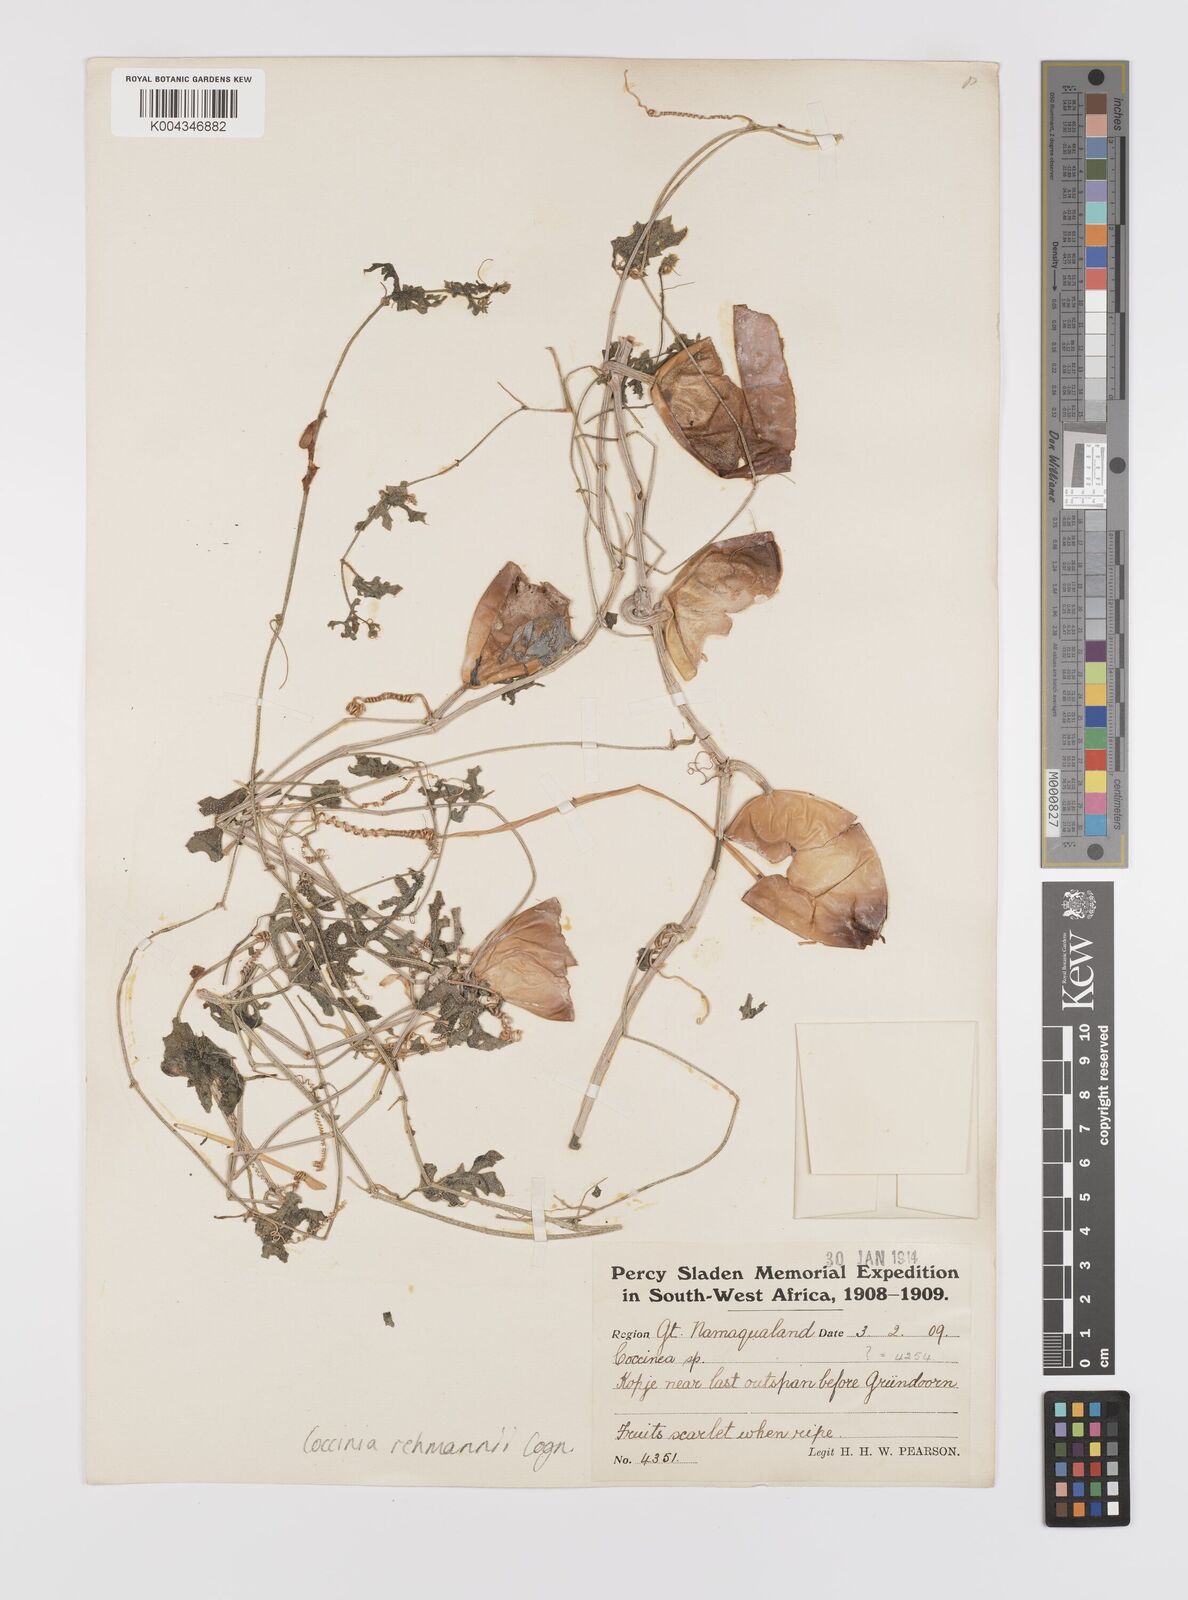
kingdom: Plantae
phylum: Tracheophyta
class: Magnoliopsida
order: Cucurbitales
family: Cucurbitaceae
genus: Coccinia
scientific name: Coccinia rehmannii
